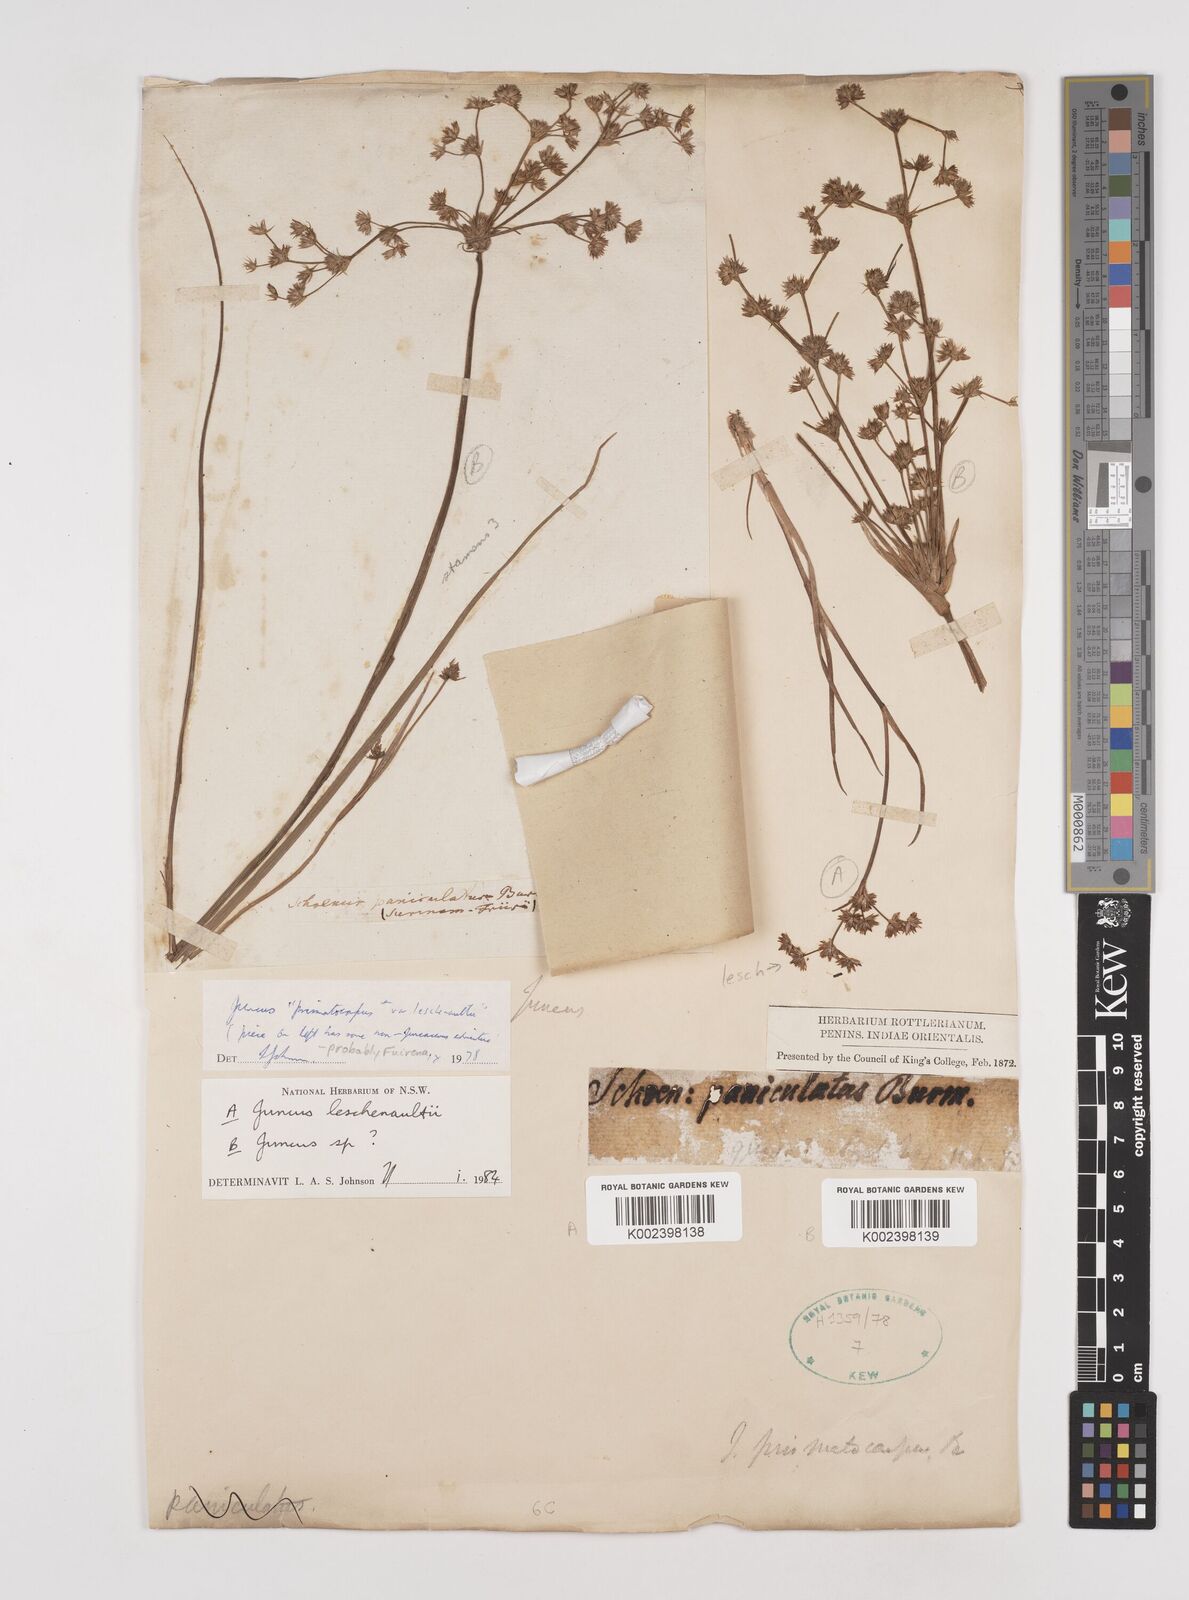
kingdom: Plantae
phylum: Tracheophyta
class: Liliopsida
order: Poales
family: Juncaceae
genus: Juncus
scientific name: Juncus prismatocarpus
